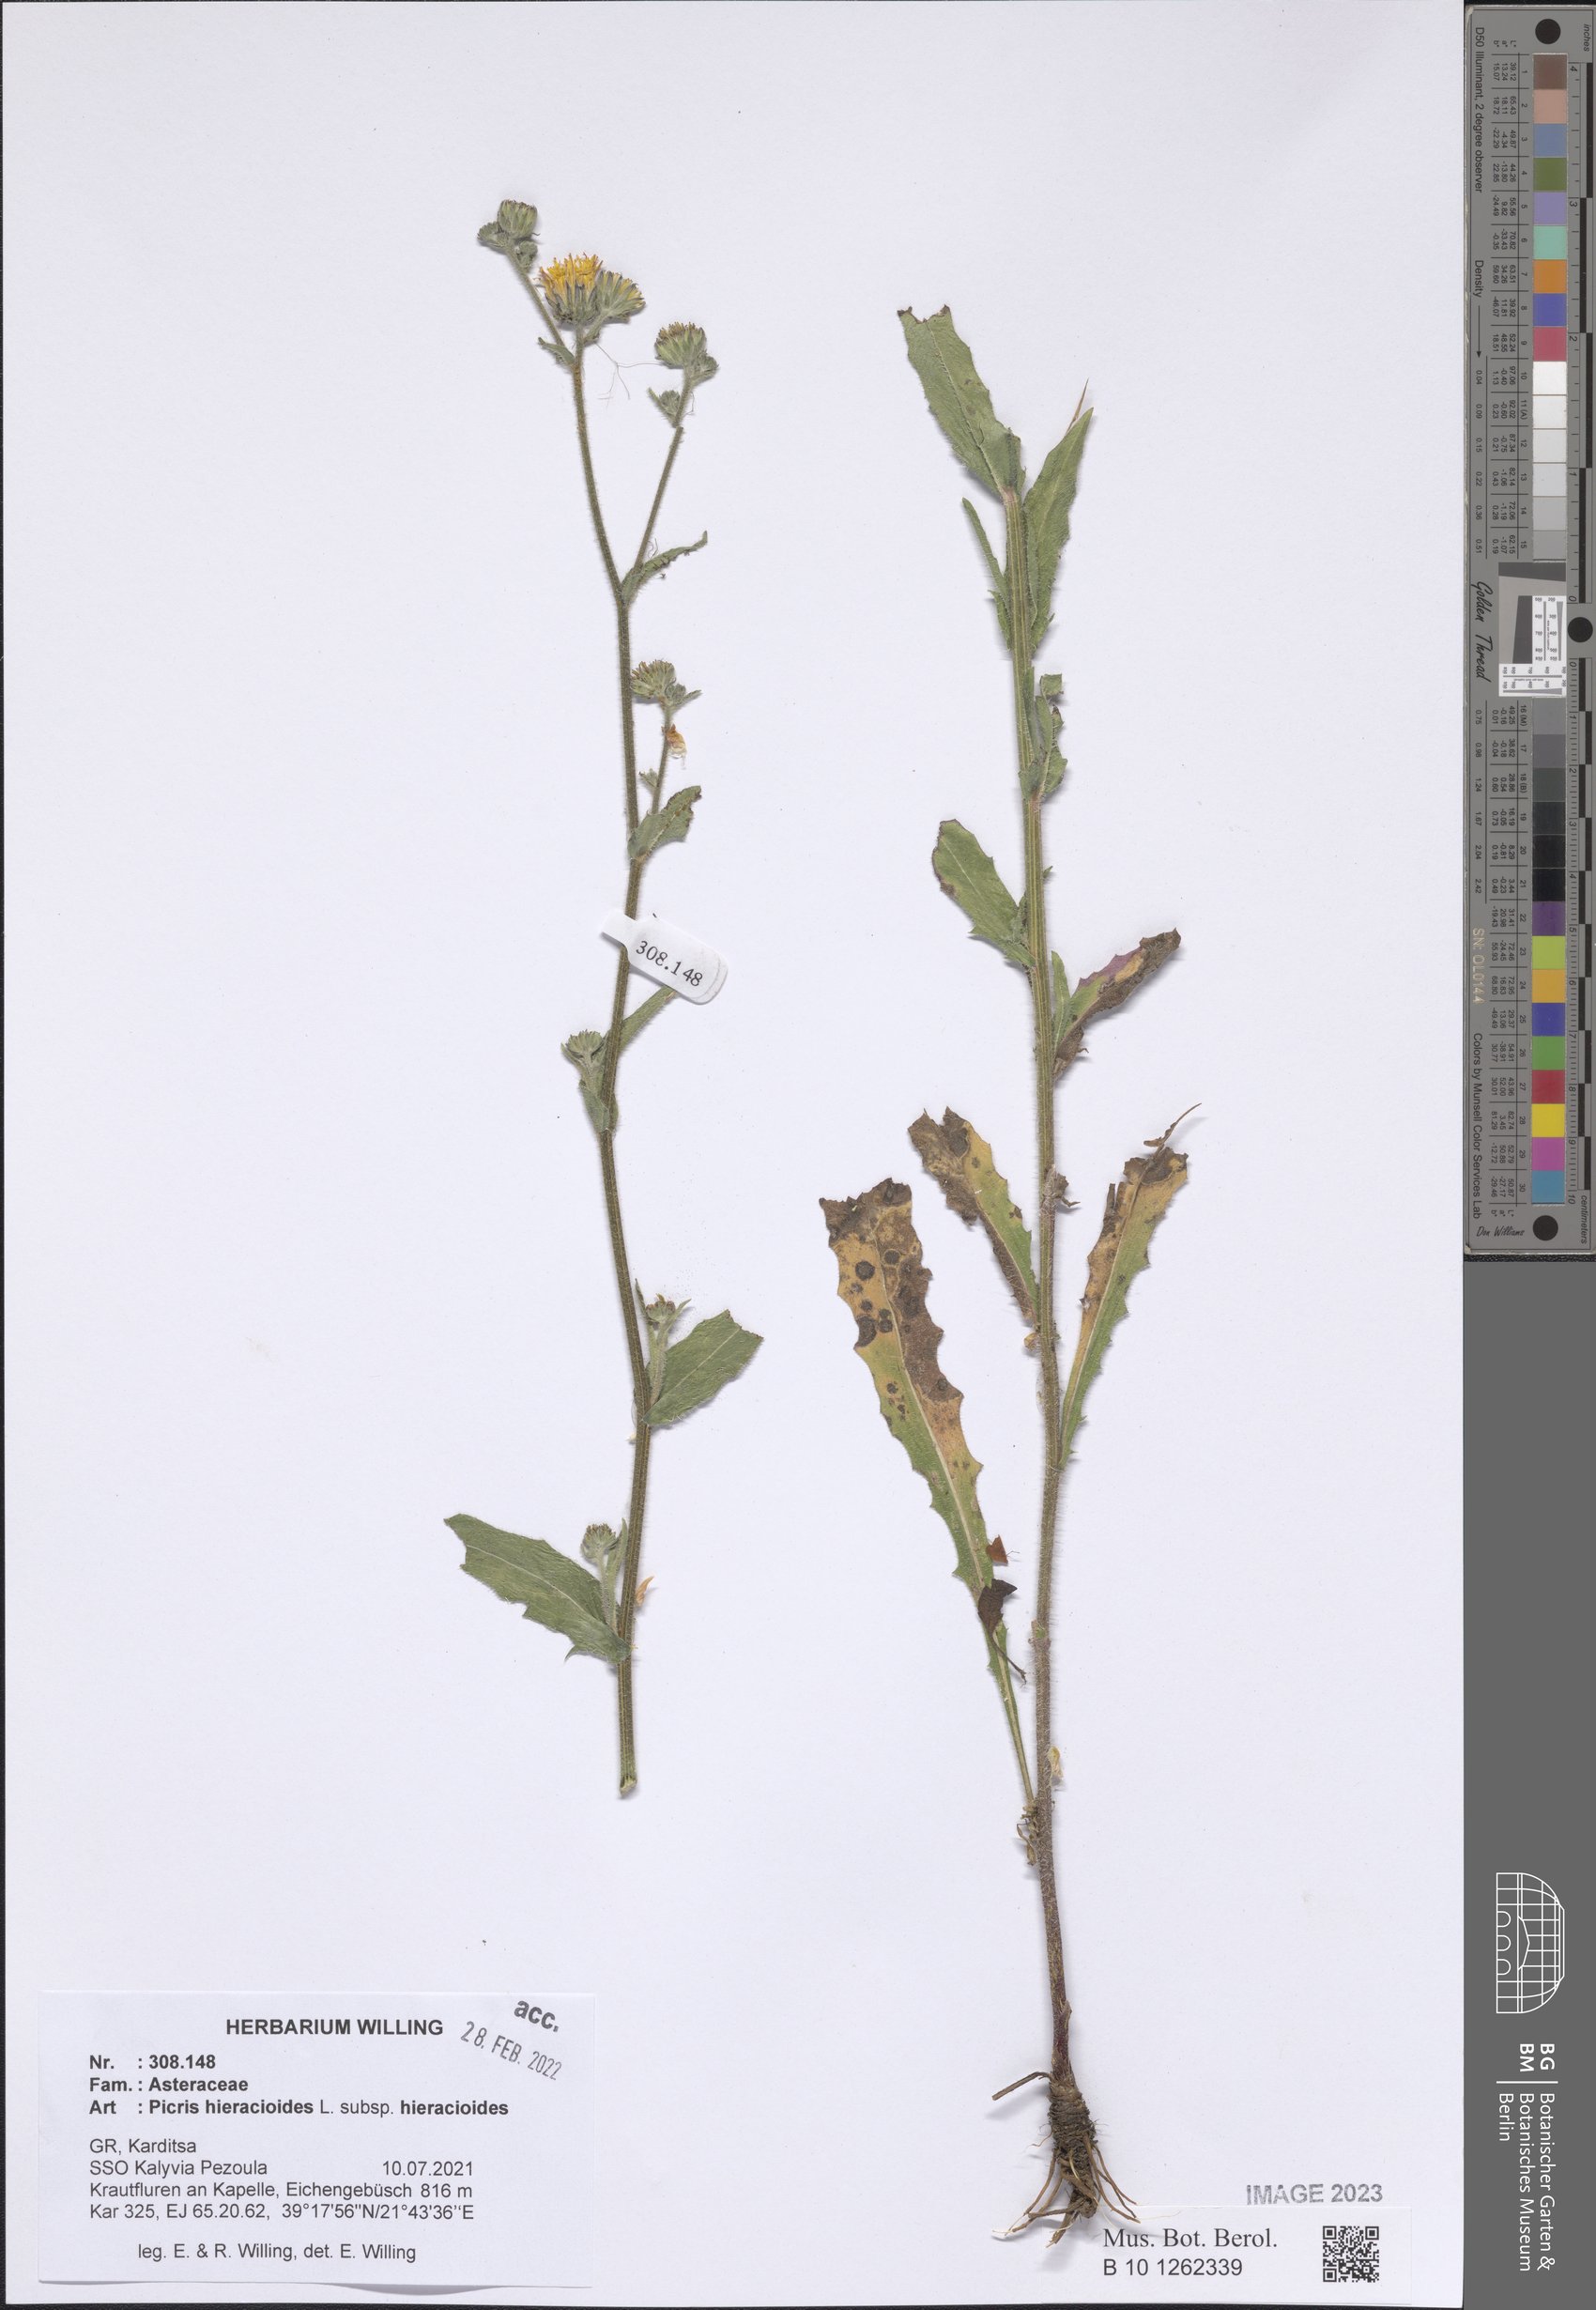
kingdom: Plantae
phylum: Tracheophyta
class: Magnoliopsida
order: Asterales
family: Asteraceae
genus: Picris
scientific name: Picris hieracioides
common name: Hawkweed oxtongue
